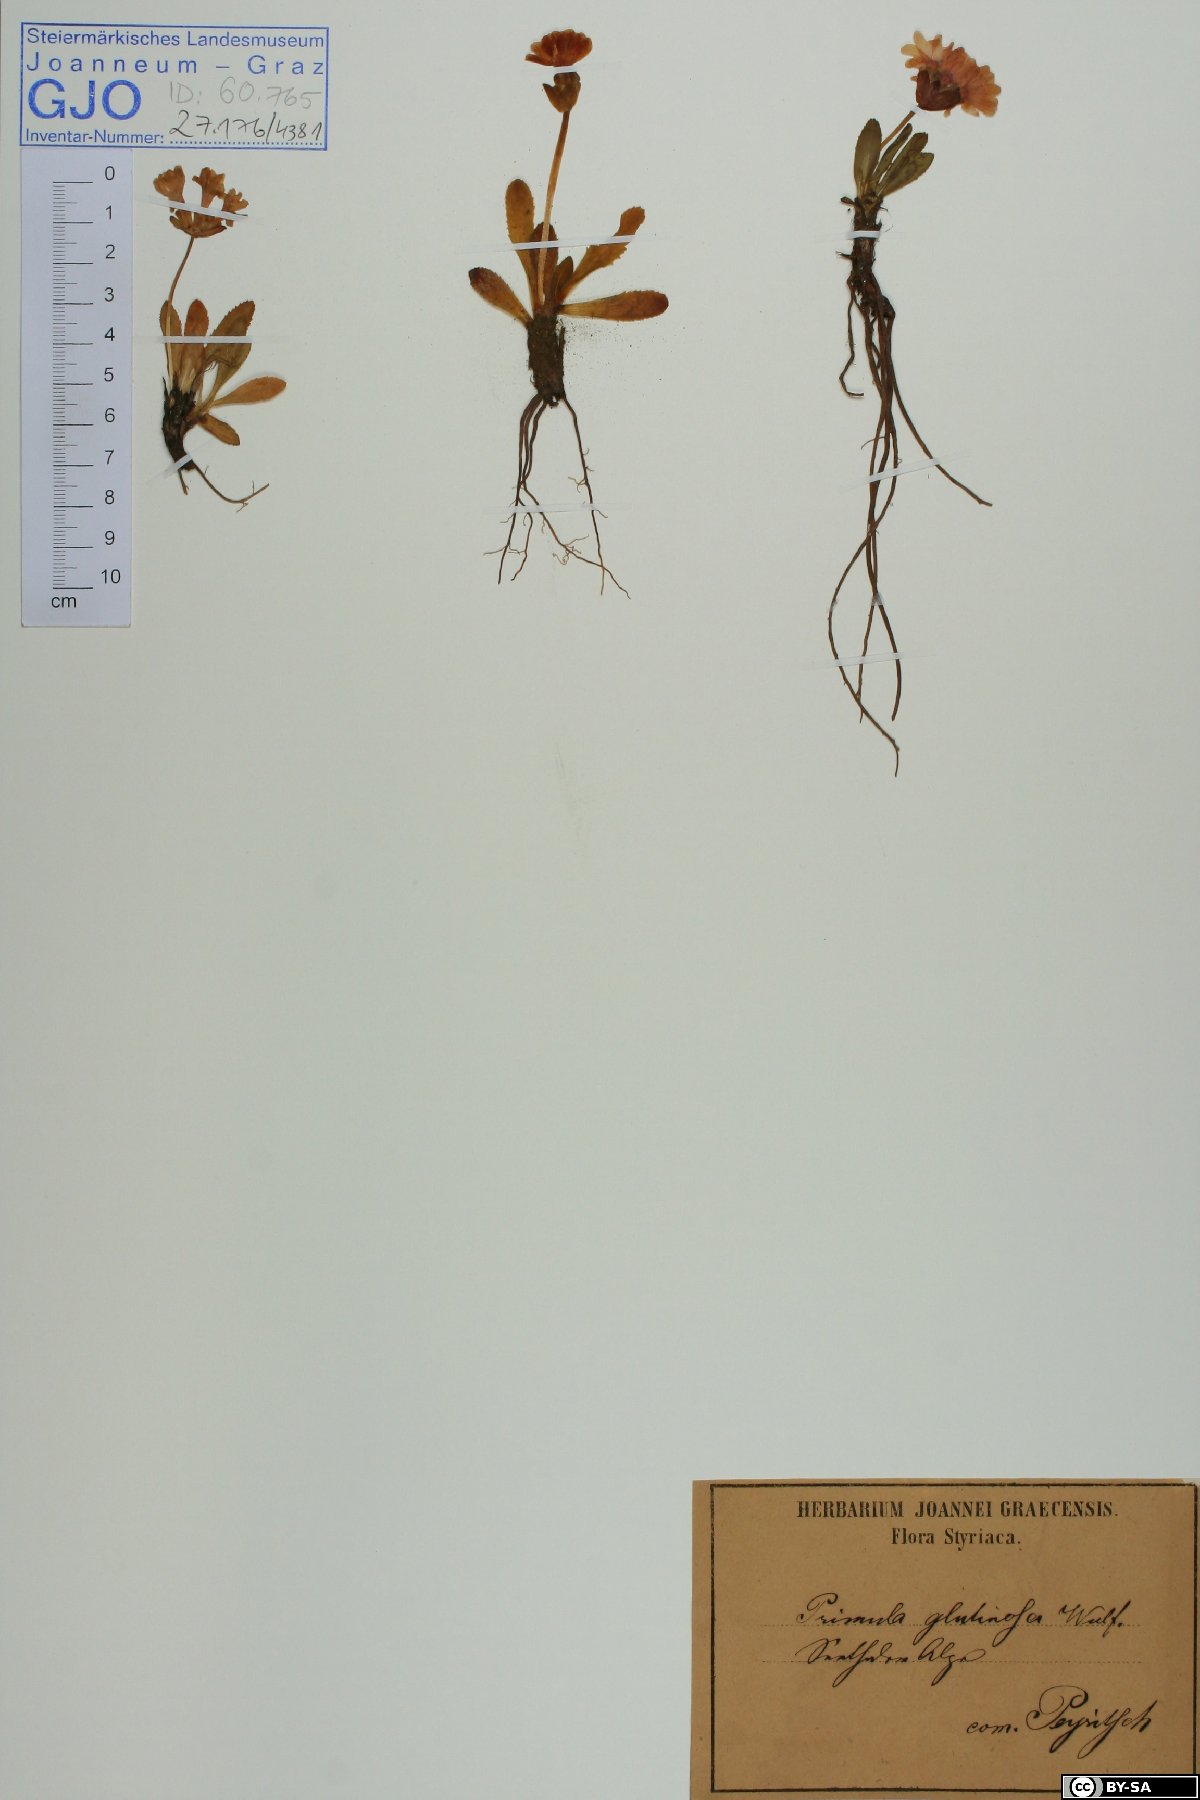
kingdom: Plantae
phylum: Tracheophyta
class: Magnoliopsida
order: Ericales
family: Primulaceae
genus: Primula
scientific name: Primula glutinosa
